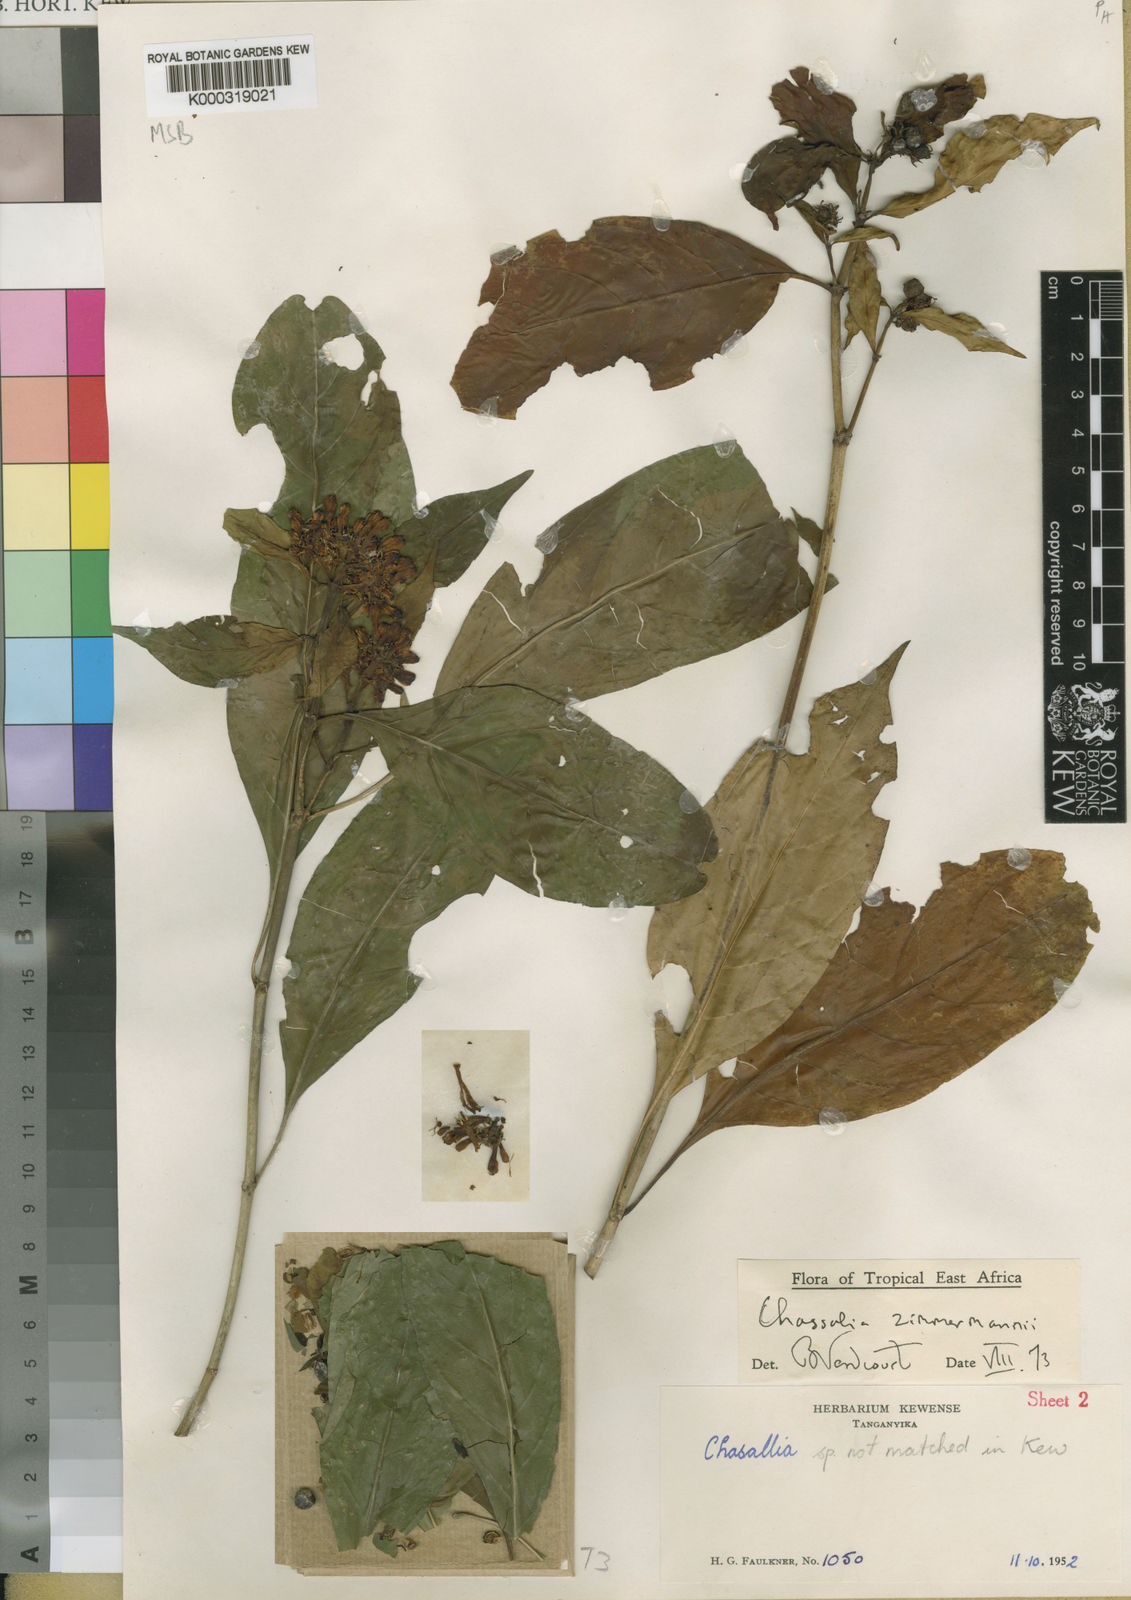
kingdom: Plantae
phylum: Tracheophyta
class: Magnoliopsida
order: Gentianales
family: Rubiaceae
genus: Chassalia
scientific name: Chassalia zimmermannii
